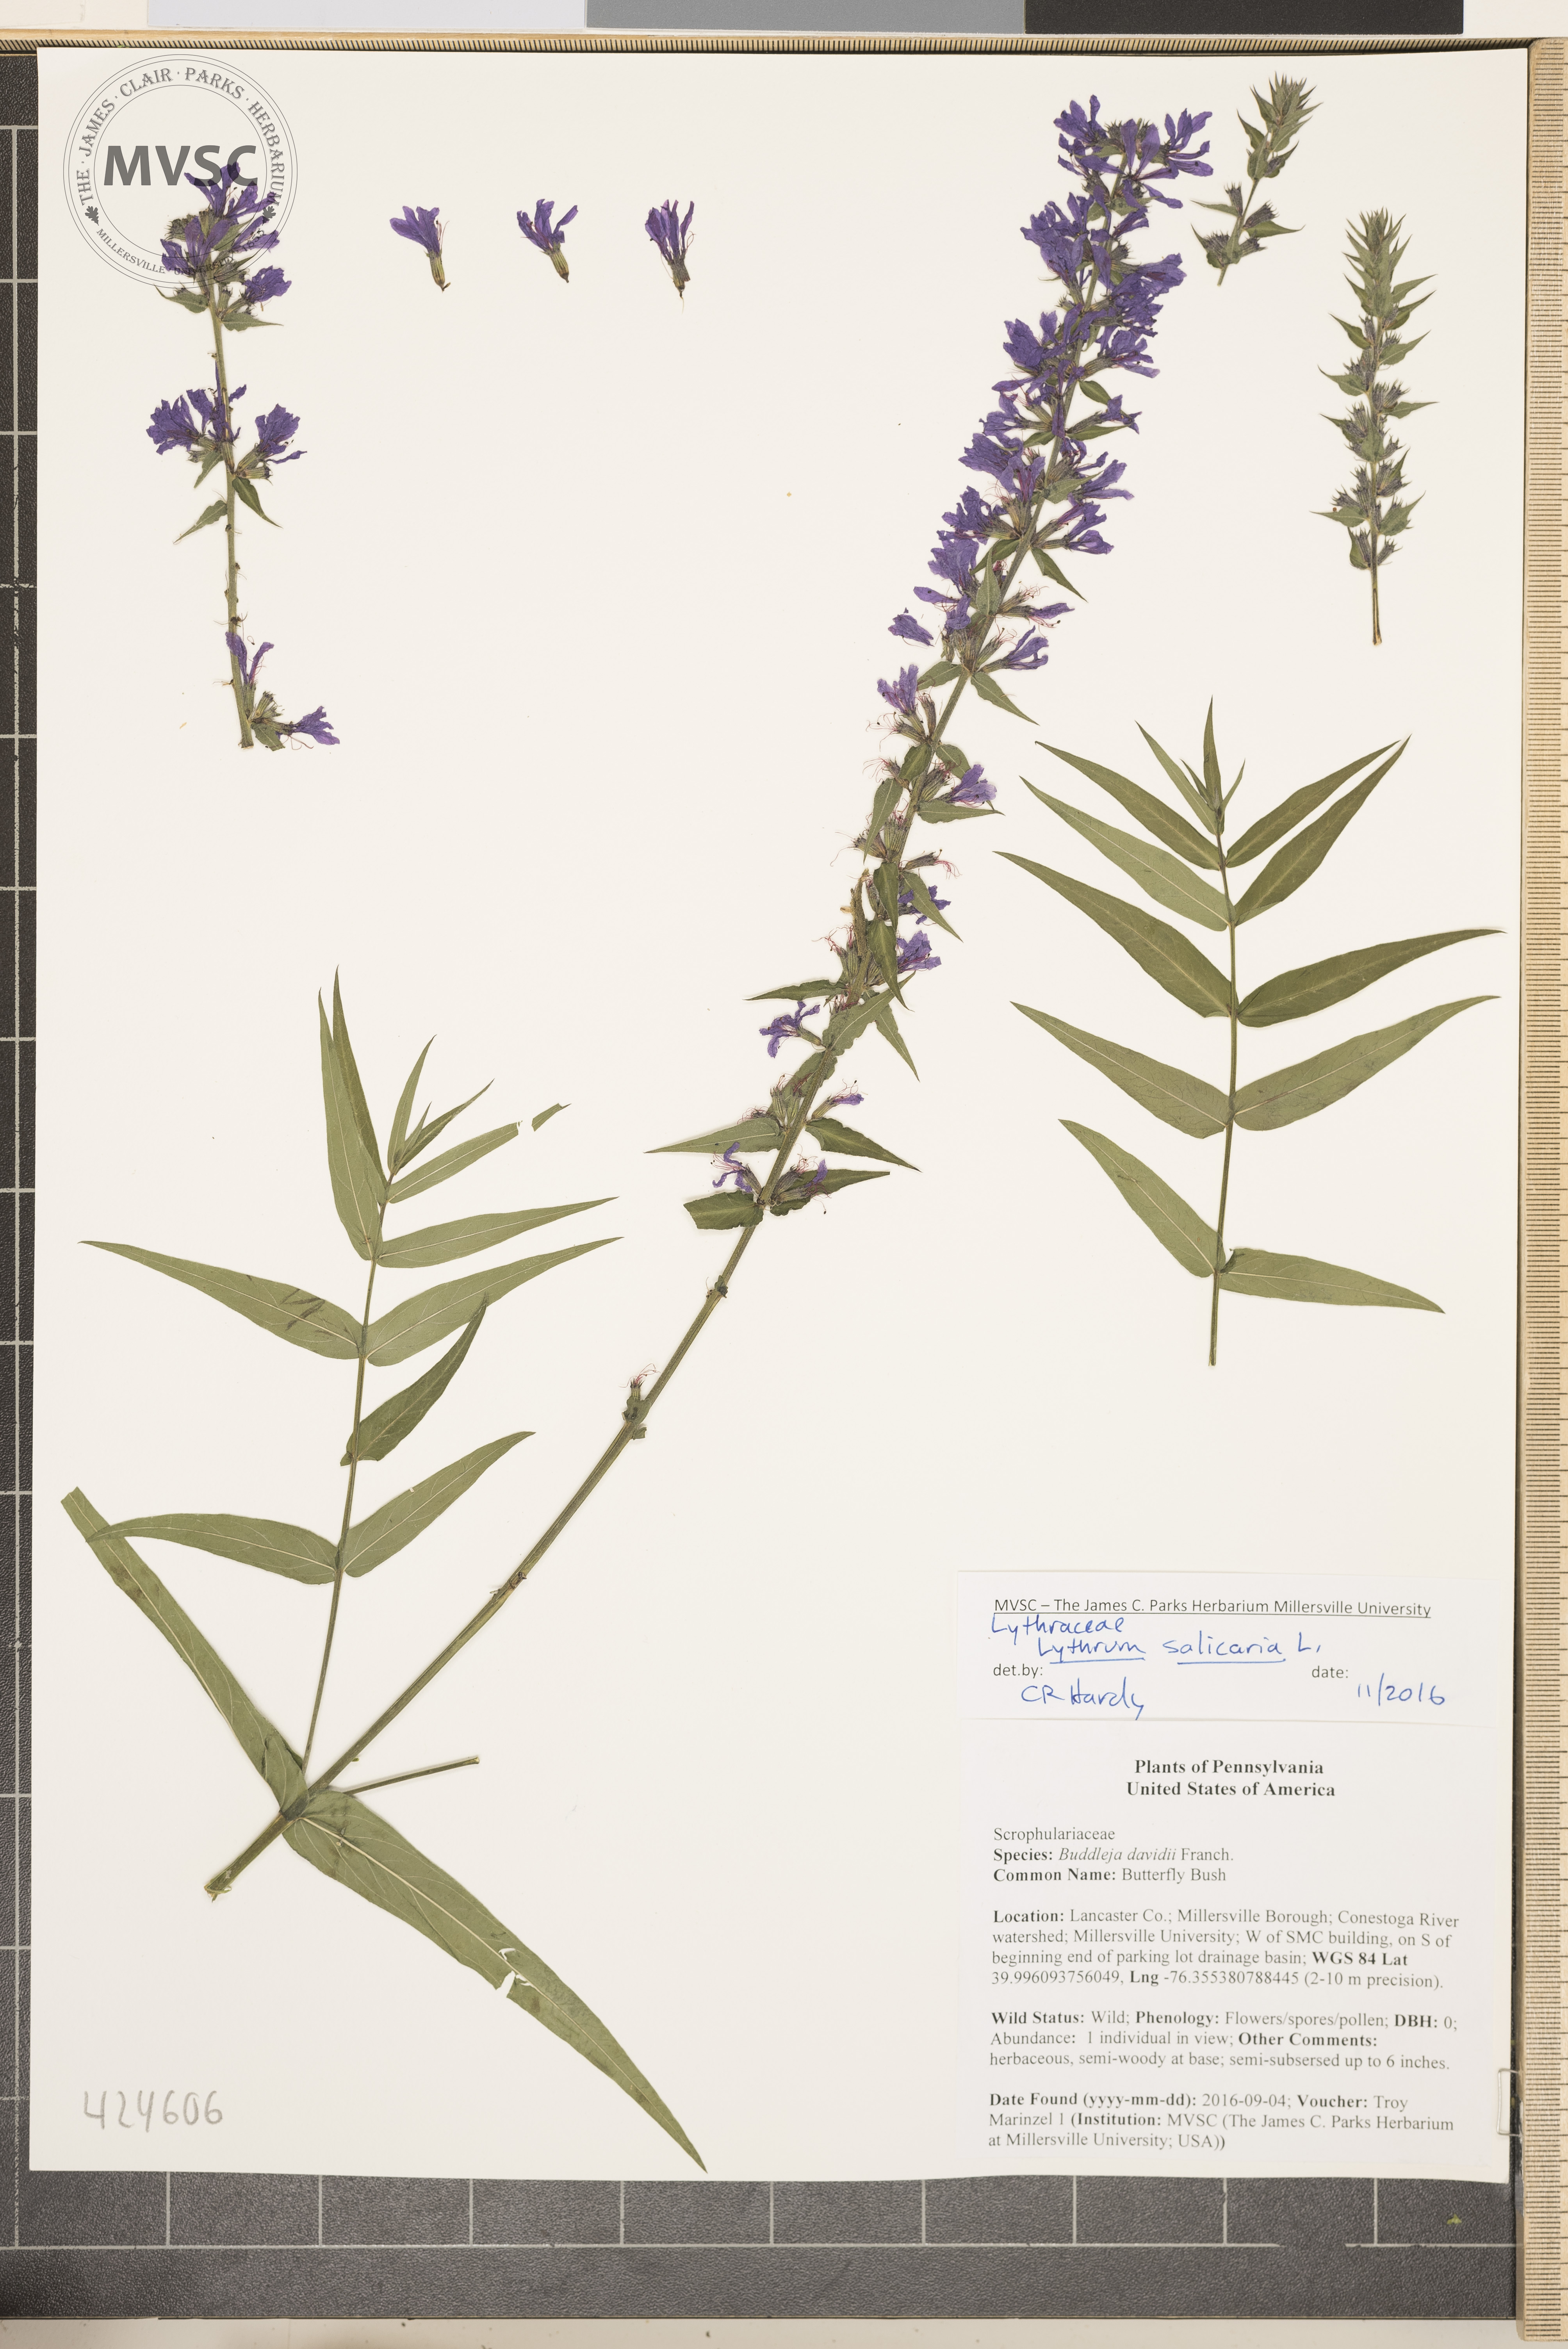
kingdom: Plantae
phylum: Tracheophyta
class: Magnoliopsida
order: Myrtales
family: Lythraceae
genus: Lythrum
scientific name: Lythrum salicaria
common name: Purple Loosestrife
